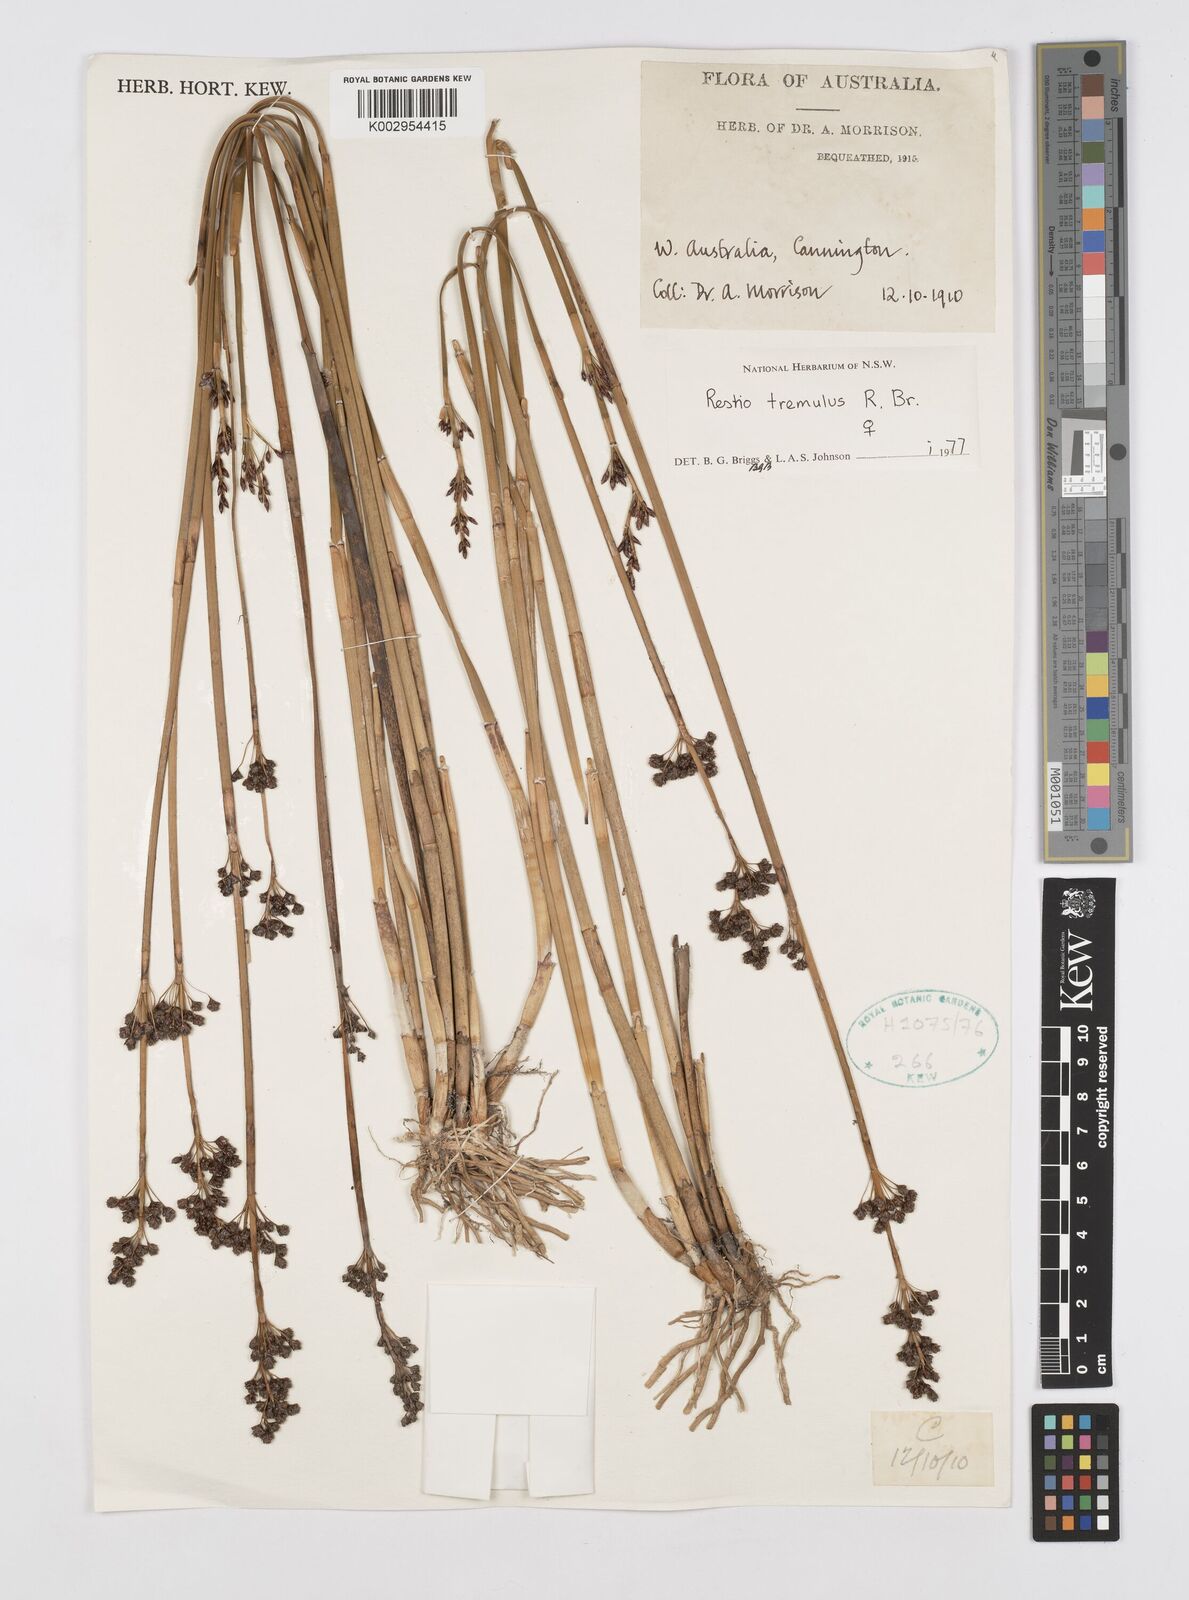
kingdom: Plantae
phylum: Tracheophyta
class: Liliopsida
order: Poales
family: Restionaceae
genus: Tremulina
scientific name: Tremulina tremula
